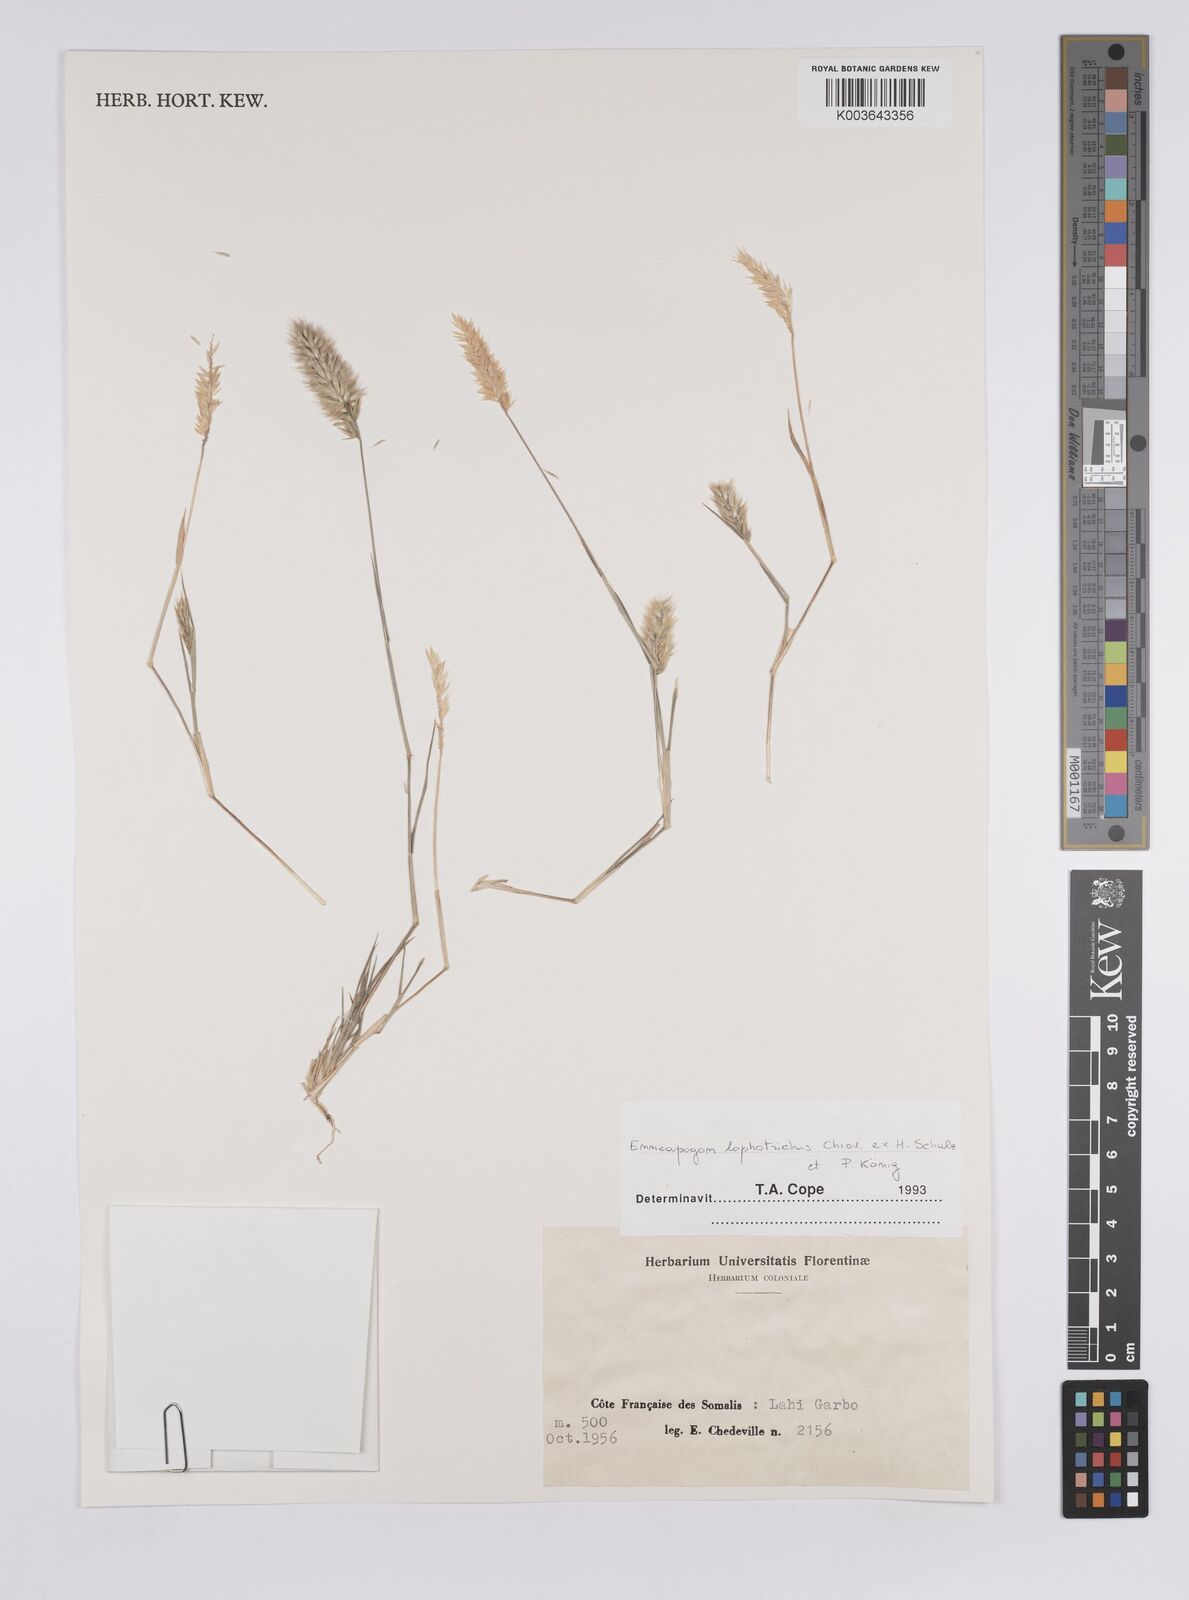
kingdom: Plantae
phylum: Tracheophyta
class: Liliopsida
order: Poales
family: Poaceae
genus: Enneapogon
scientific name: Enneapogon lophotrichus
